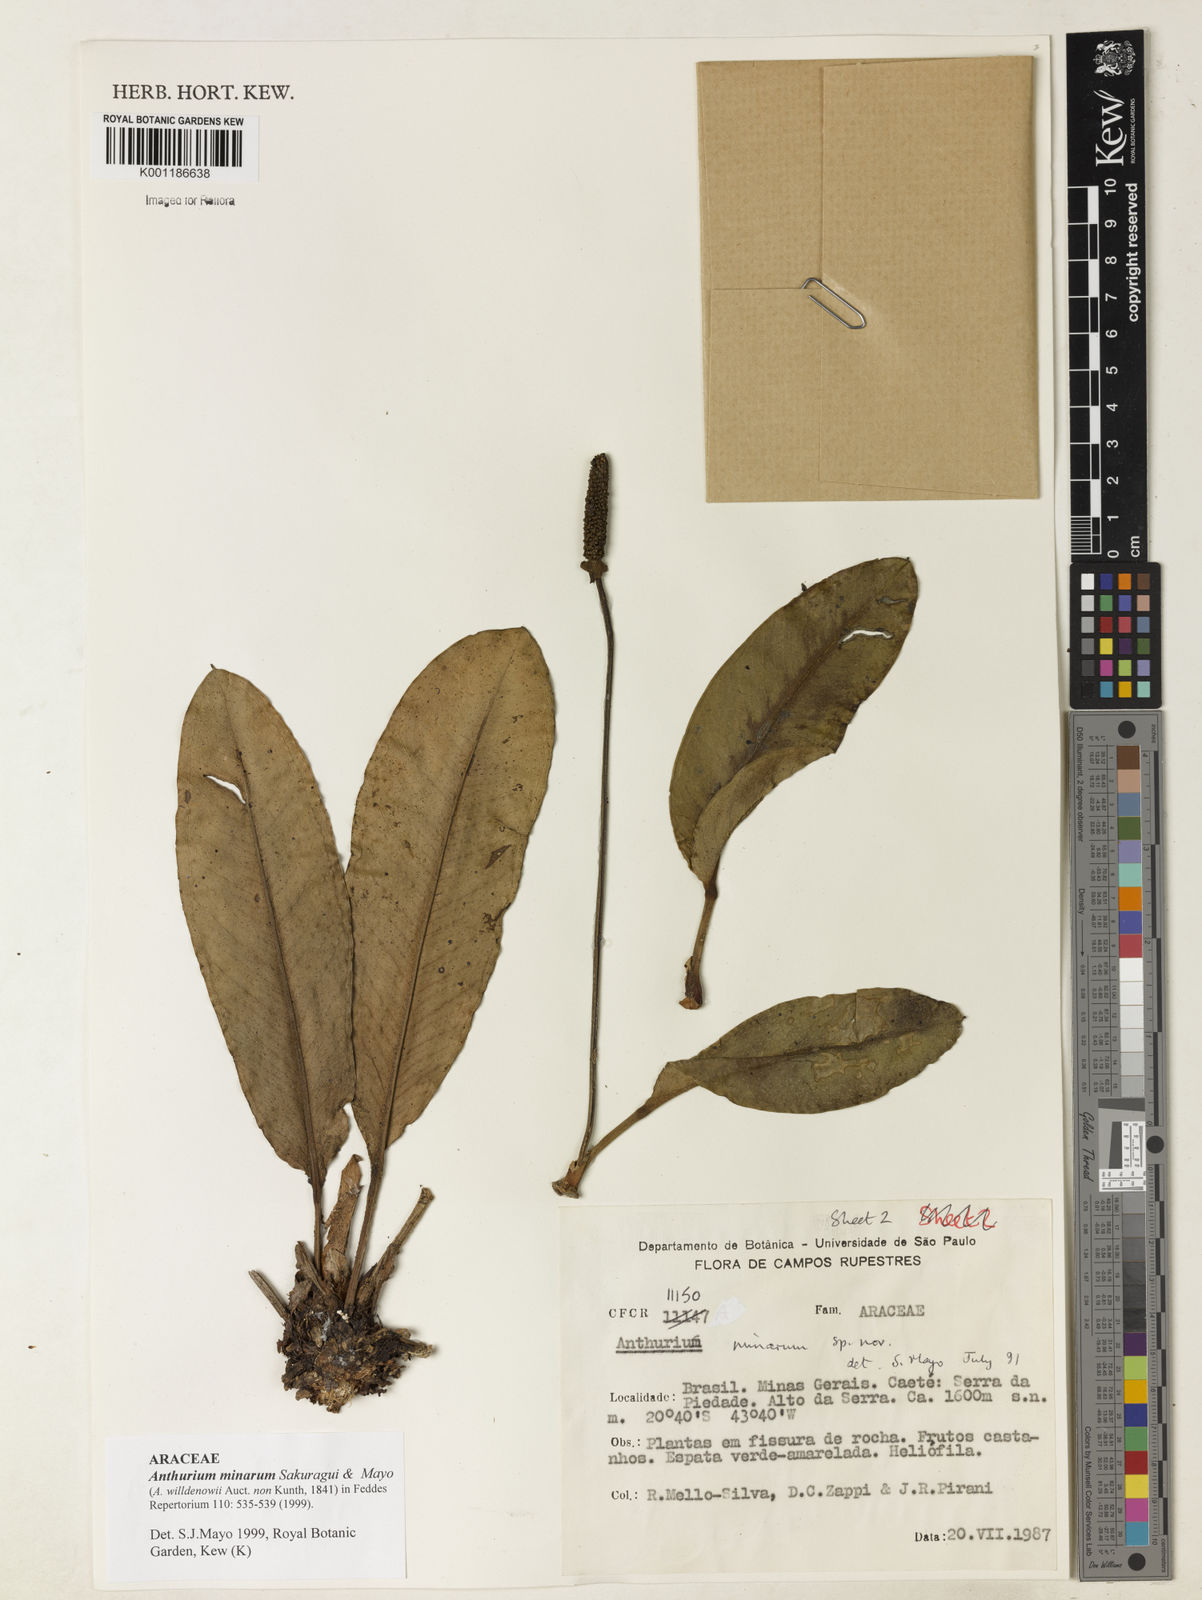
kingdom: Plantae
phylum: Tracheophyta
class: Liliopsida
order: Alismatales
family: Araceae
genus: Anthurium
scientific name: Anthurium minarum
